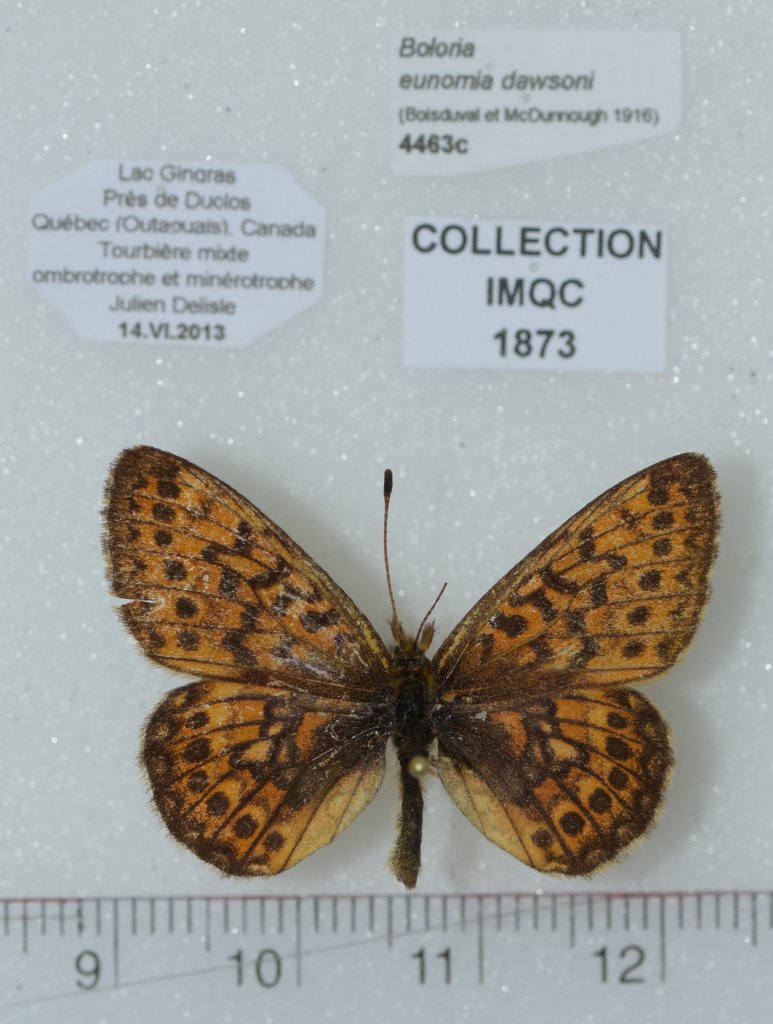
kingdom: Animalia
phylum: Arthropoda
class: Insecta
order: Lepidoptera
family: Nymphalidae
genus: Boloria
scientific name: Boloria eunomia
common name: Bog Fritillary
